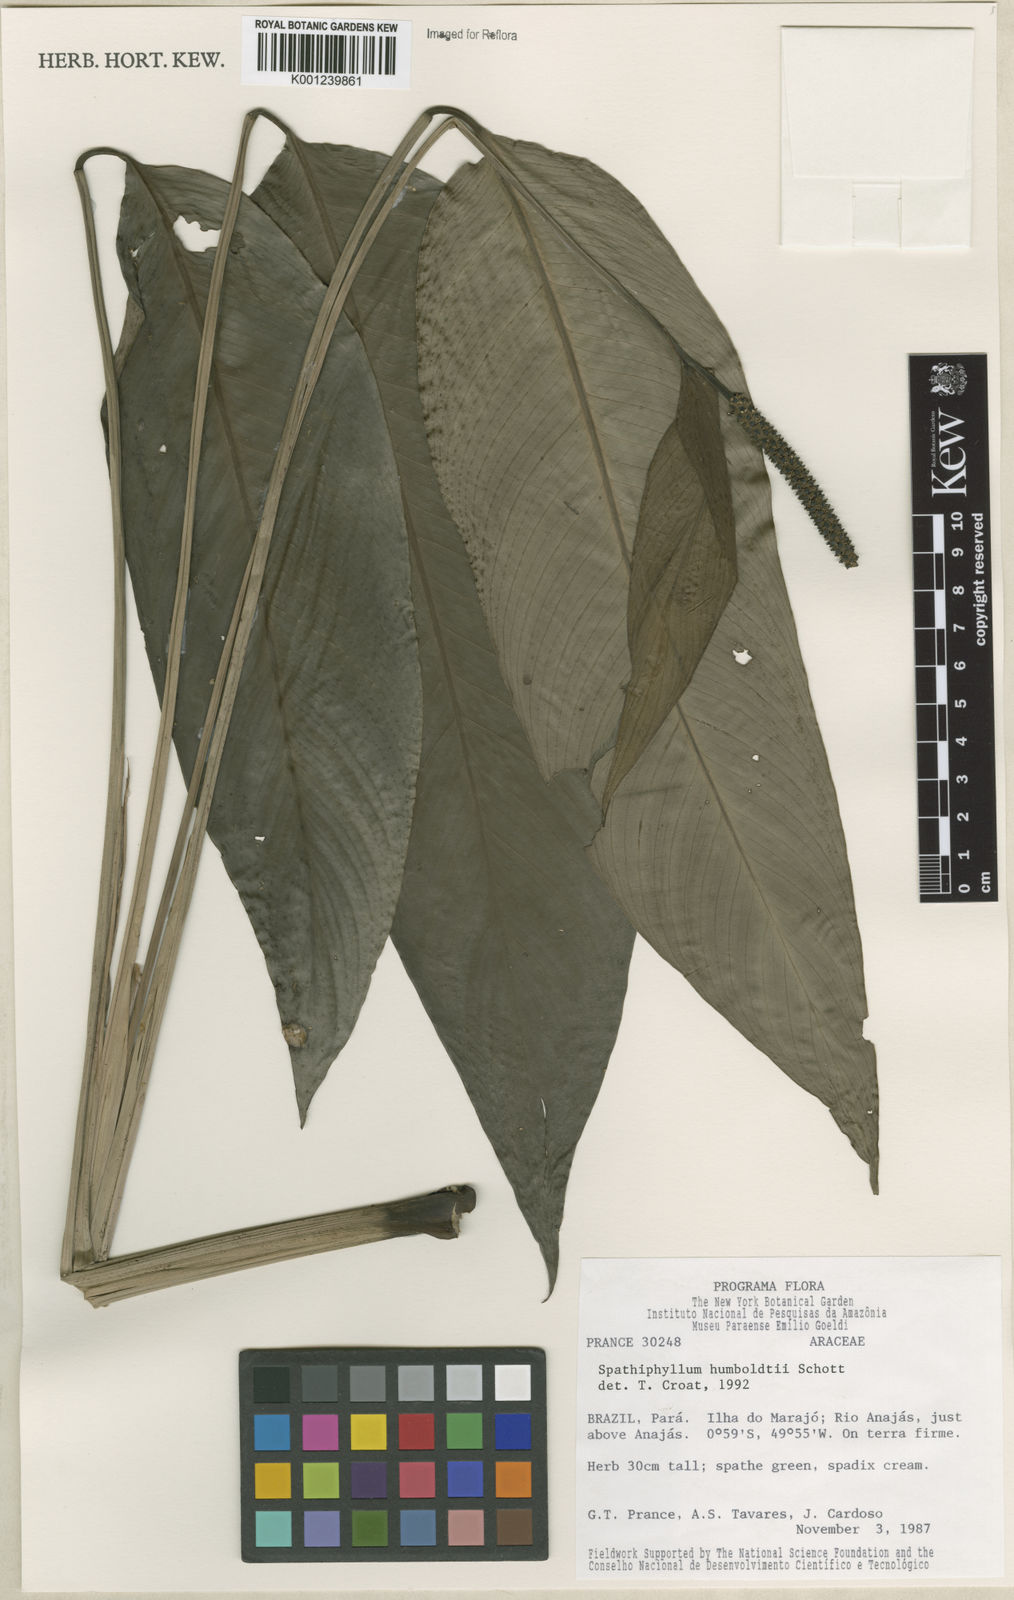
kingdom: Plantae
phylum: Tracheophyta
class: Liliopsida
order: Alismatales
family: Araceae
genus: Spathiphyllum
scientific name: Spathiphyllum humboldtii
